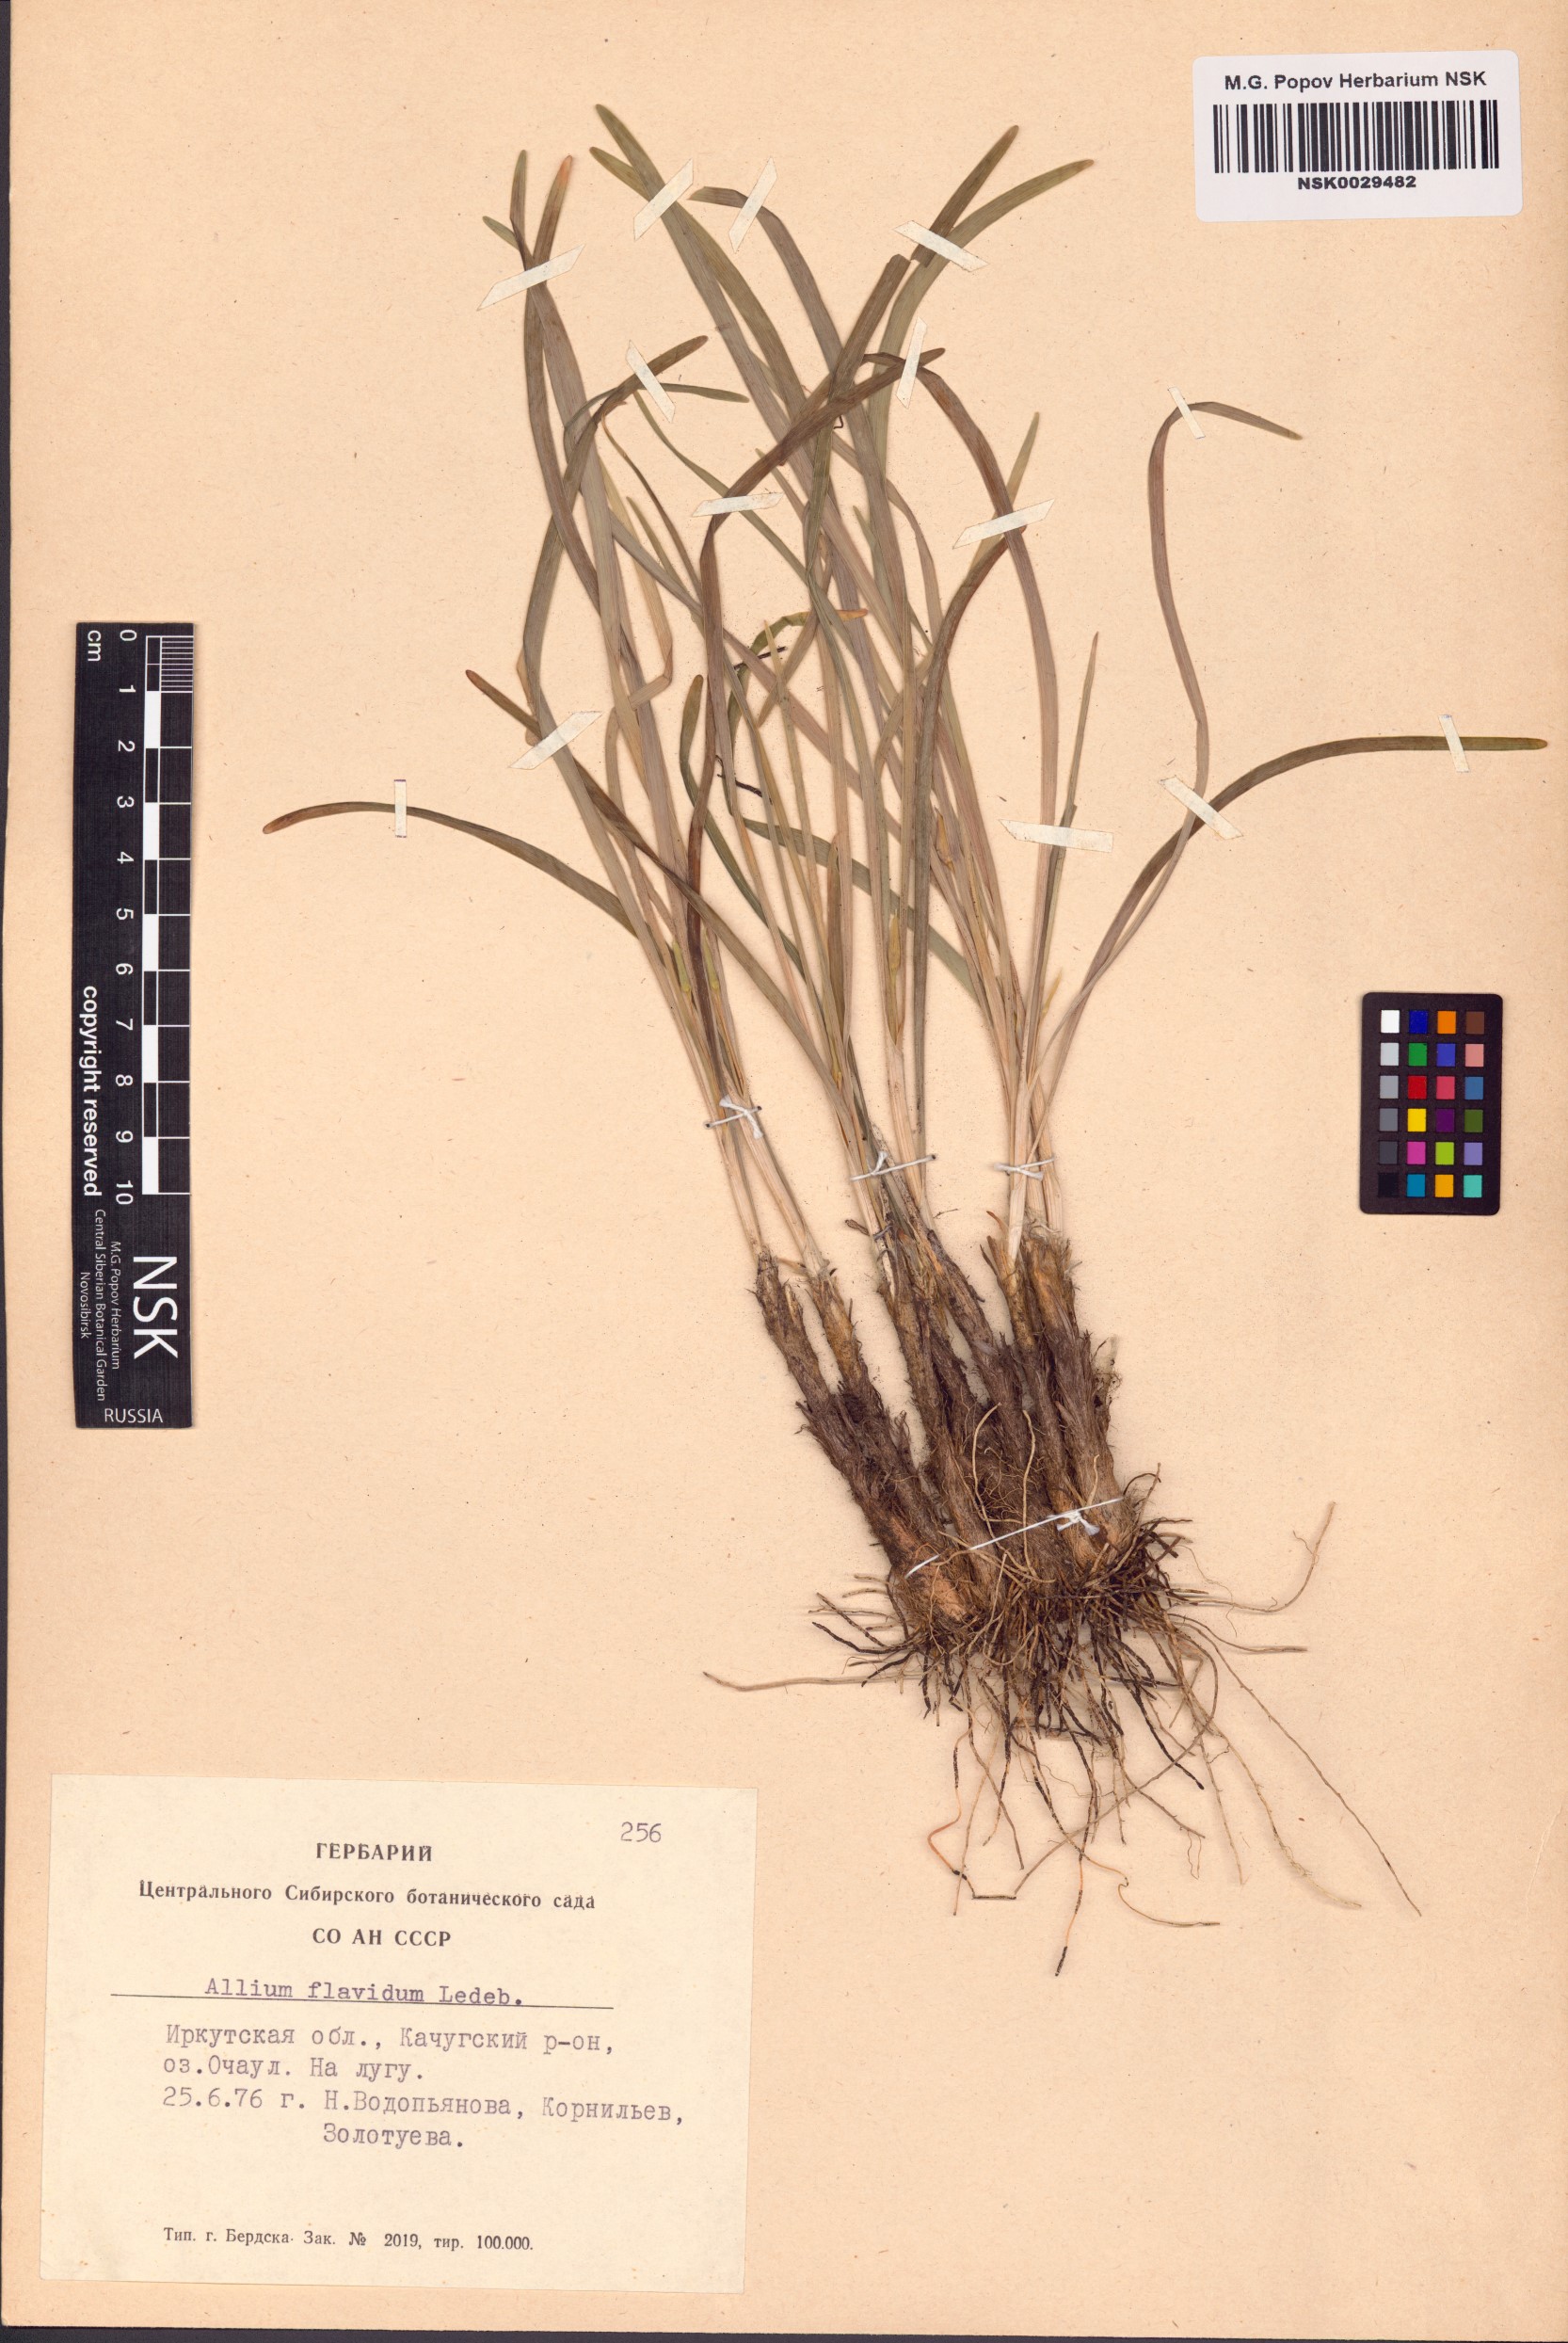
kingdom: Plantae
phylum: Tracheophyta
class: Liliopsida
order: Asparagales
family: Amaryllidaceae
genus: Allium
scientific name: Allium flavidum
